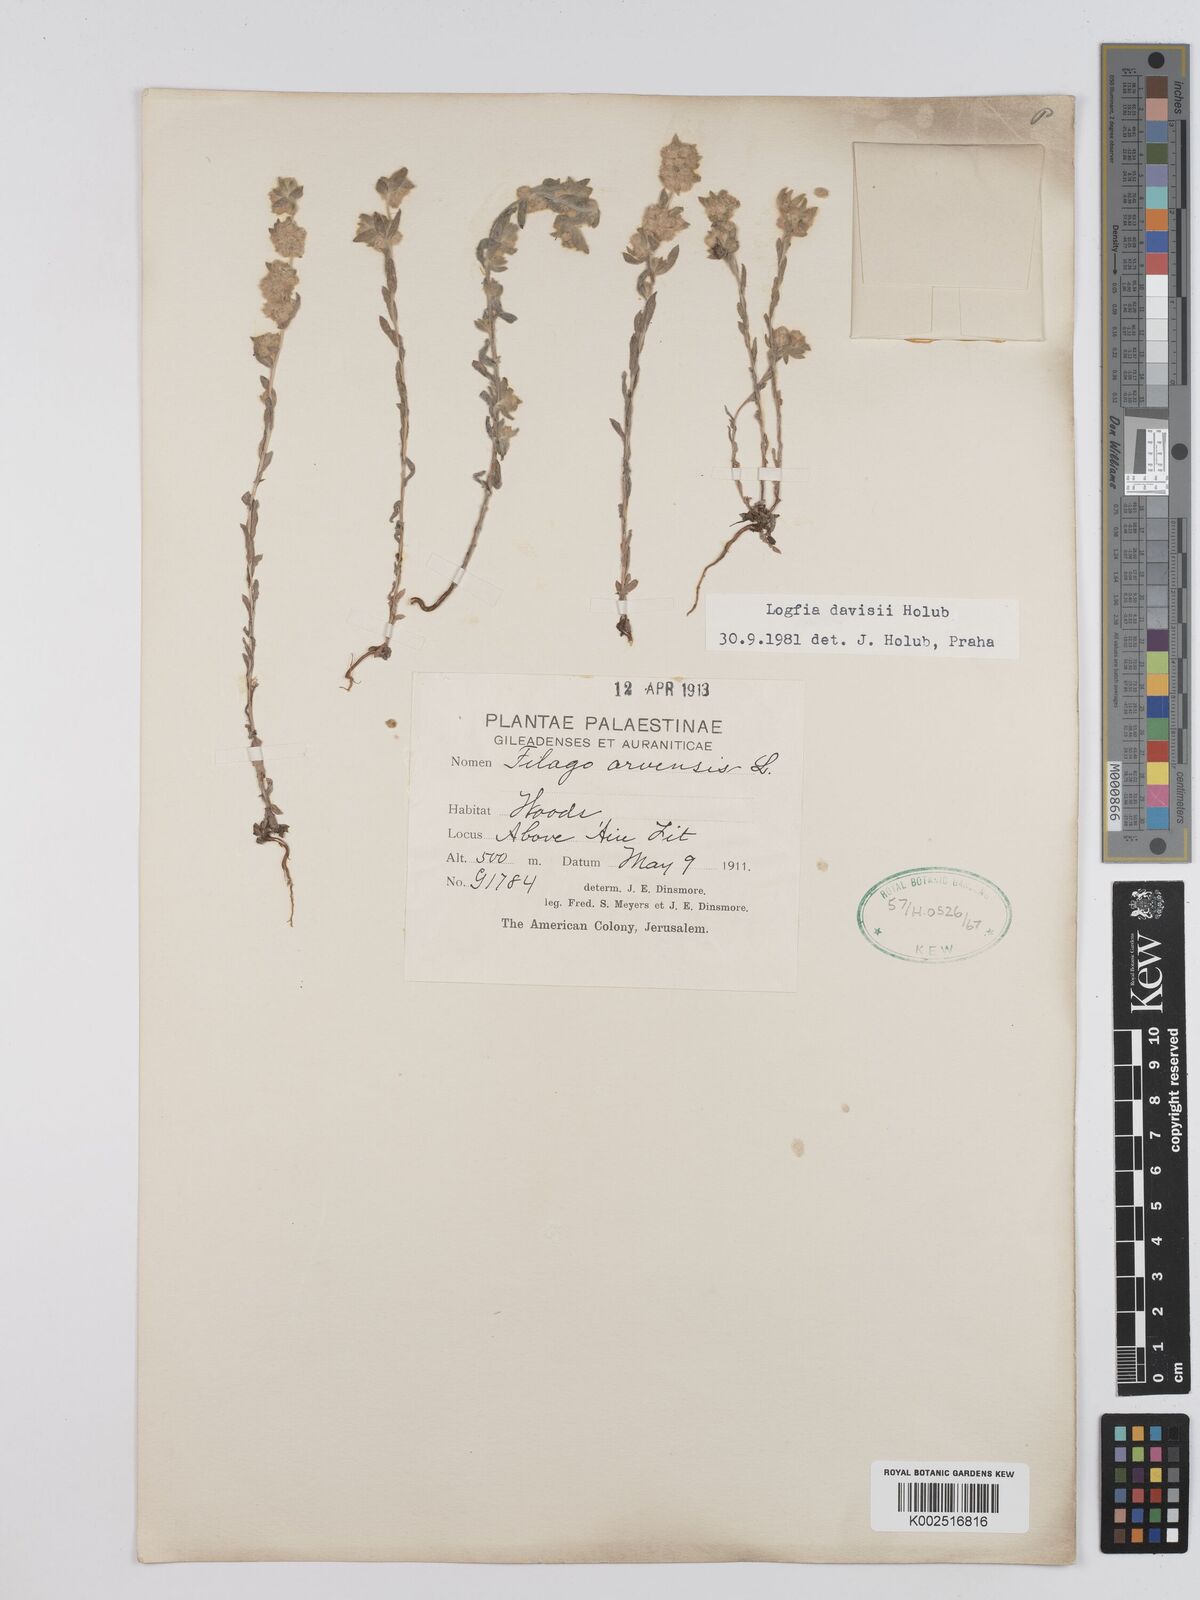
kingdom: Plantae
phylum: Tracheophyta
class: Magnoliopsida
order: Asterales
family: Asteraceae
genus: Filago
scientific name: Filago arvensis
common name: Field cudweed
